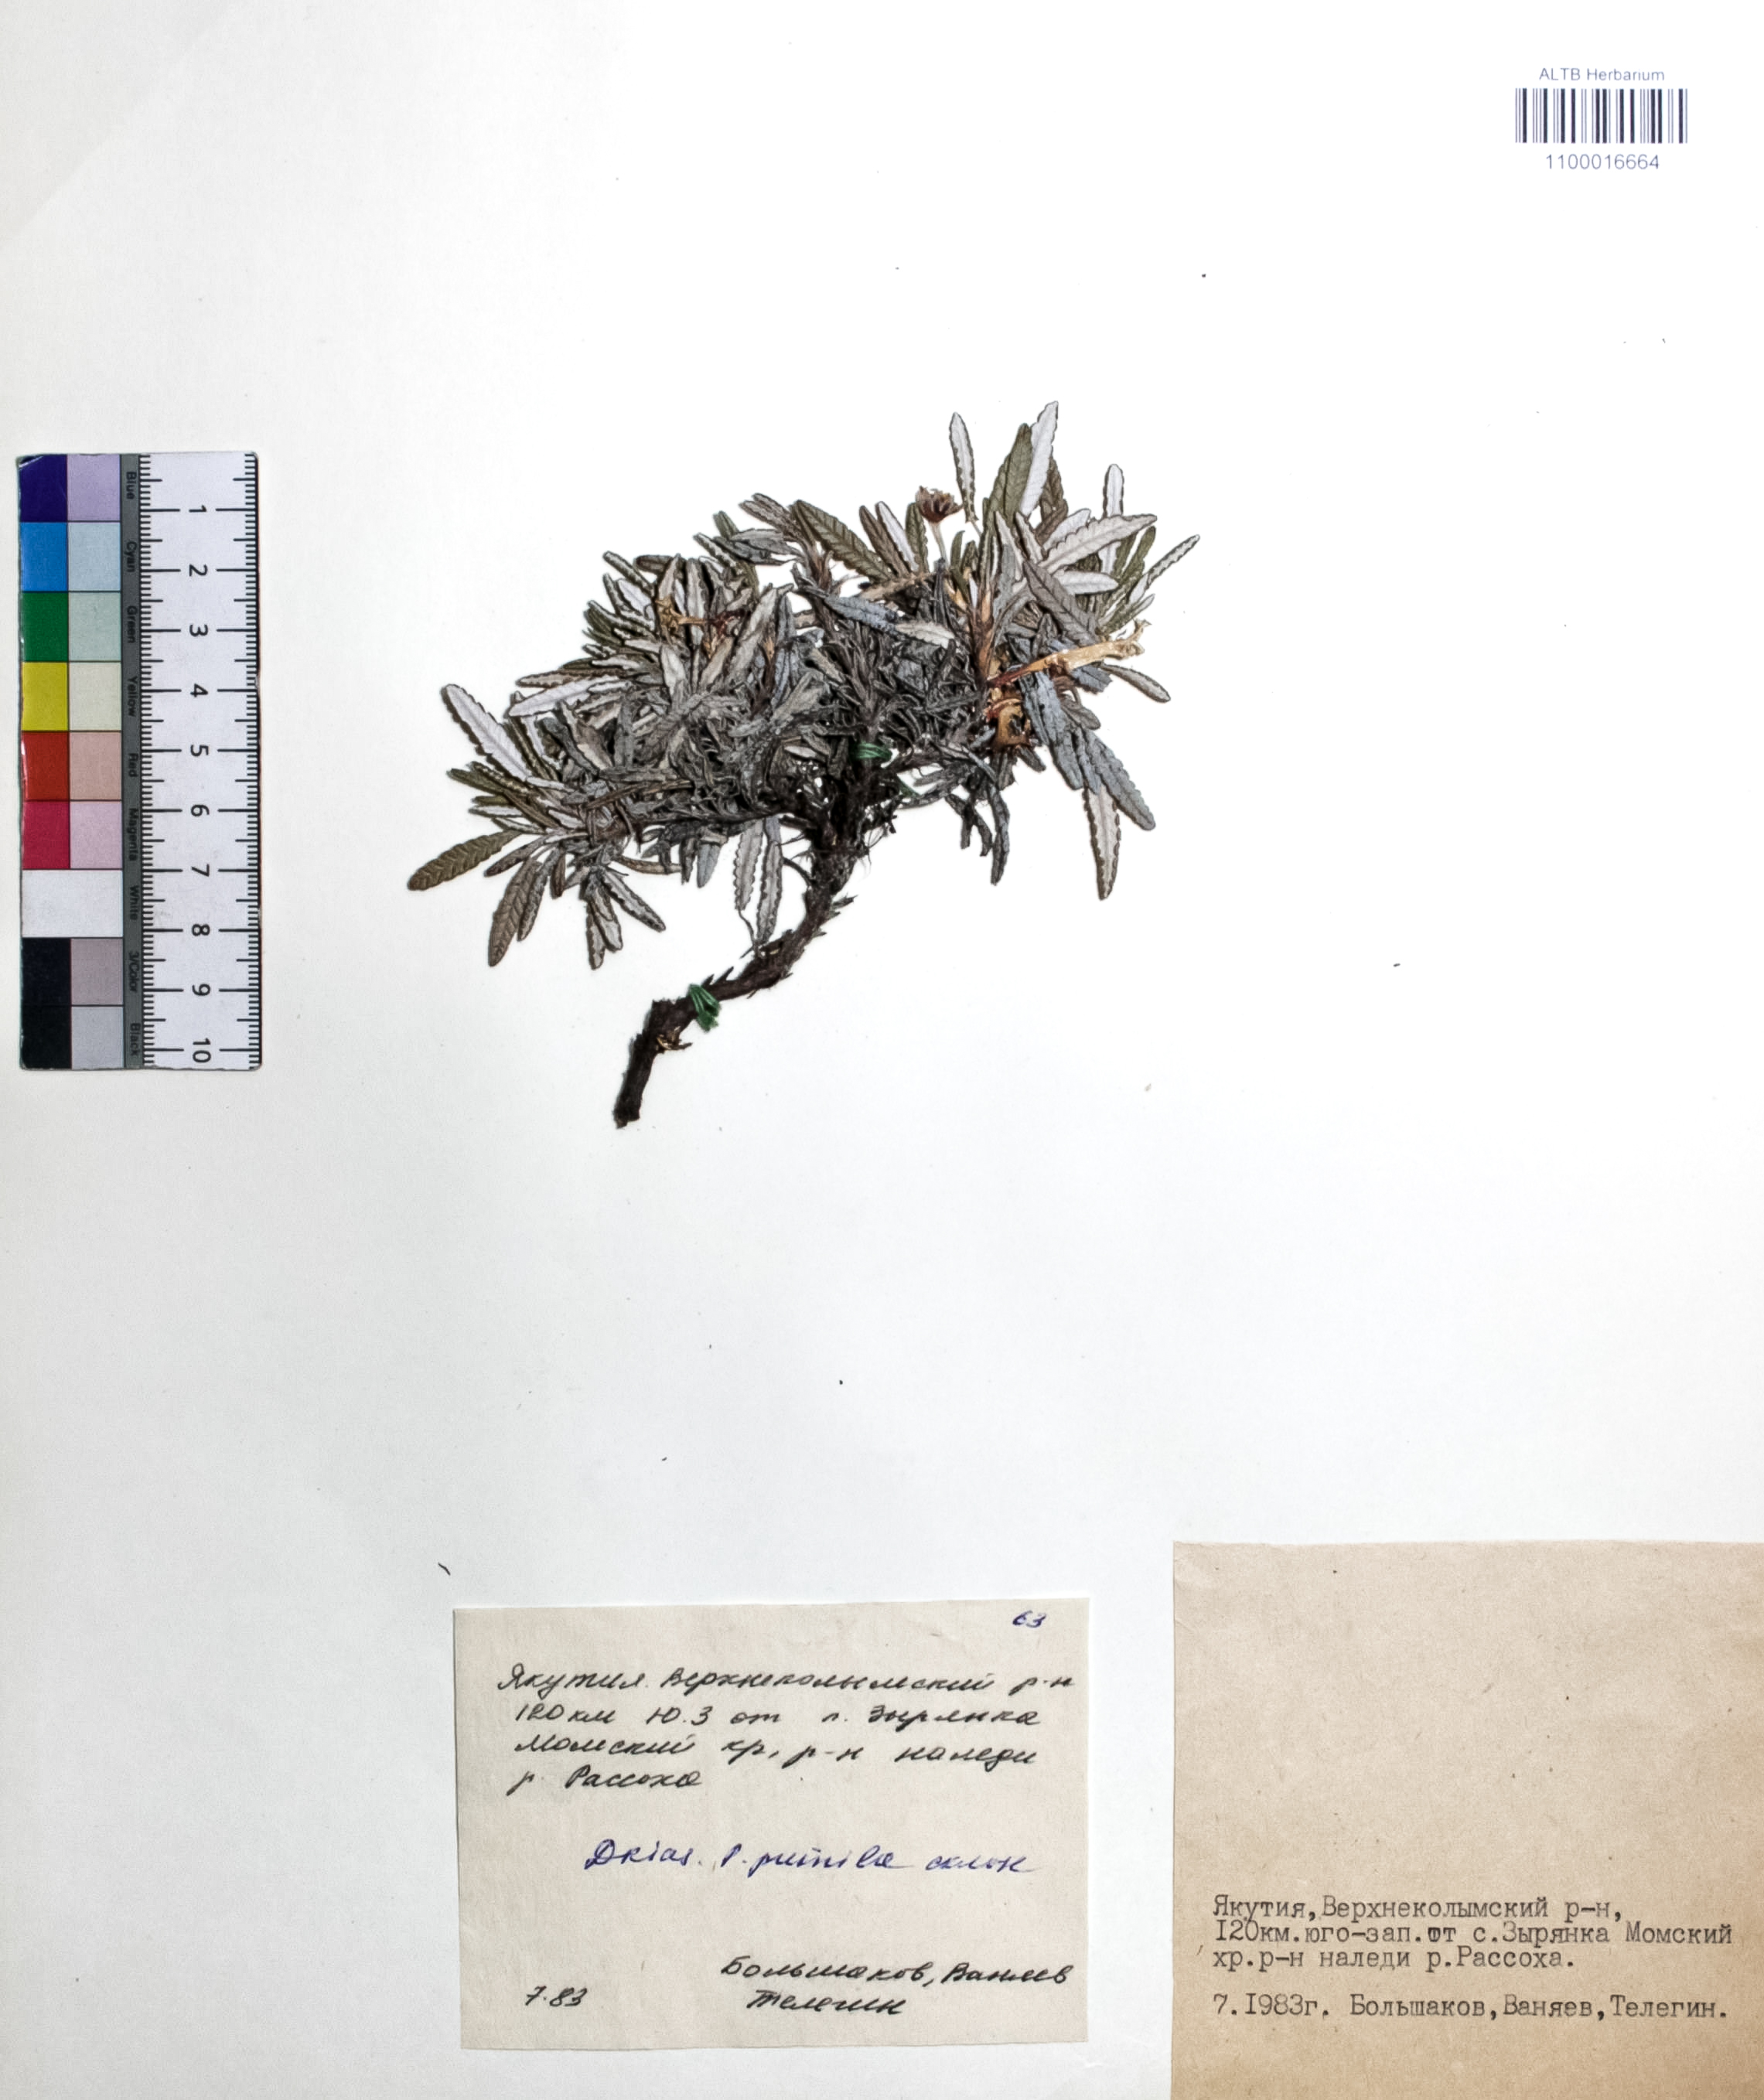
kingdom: Plantae
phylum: Tracheophyta
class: Magnoliopsida
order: Rosales
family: Rosaceae
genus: Dryas
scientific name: Dryas octopetala
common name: Eight-petal mountain-avens
